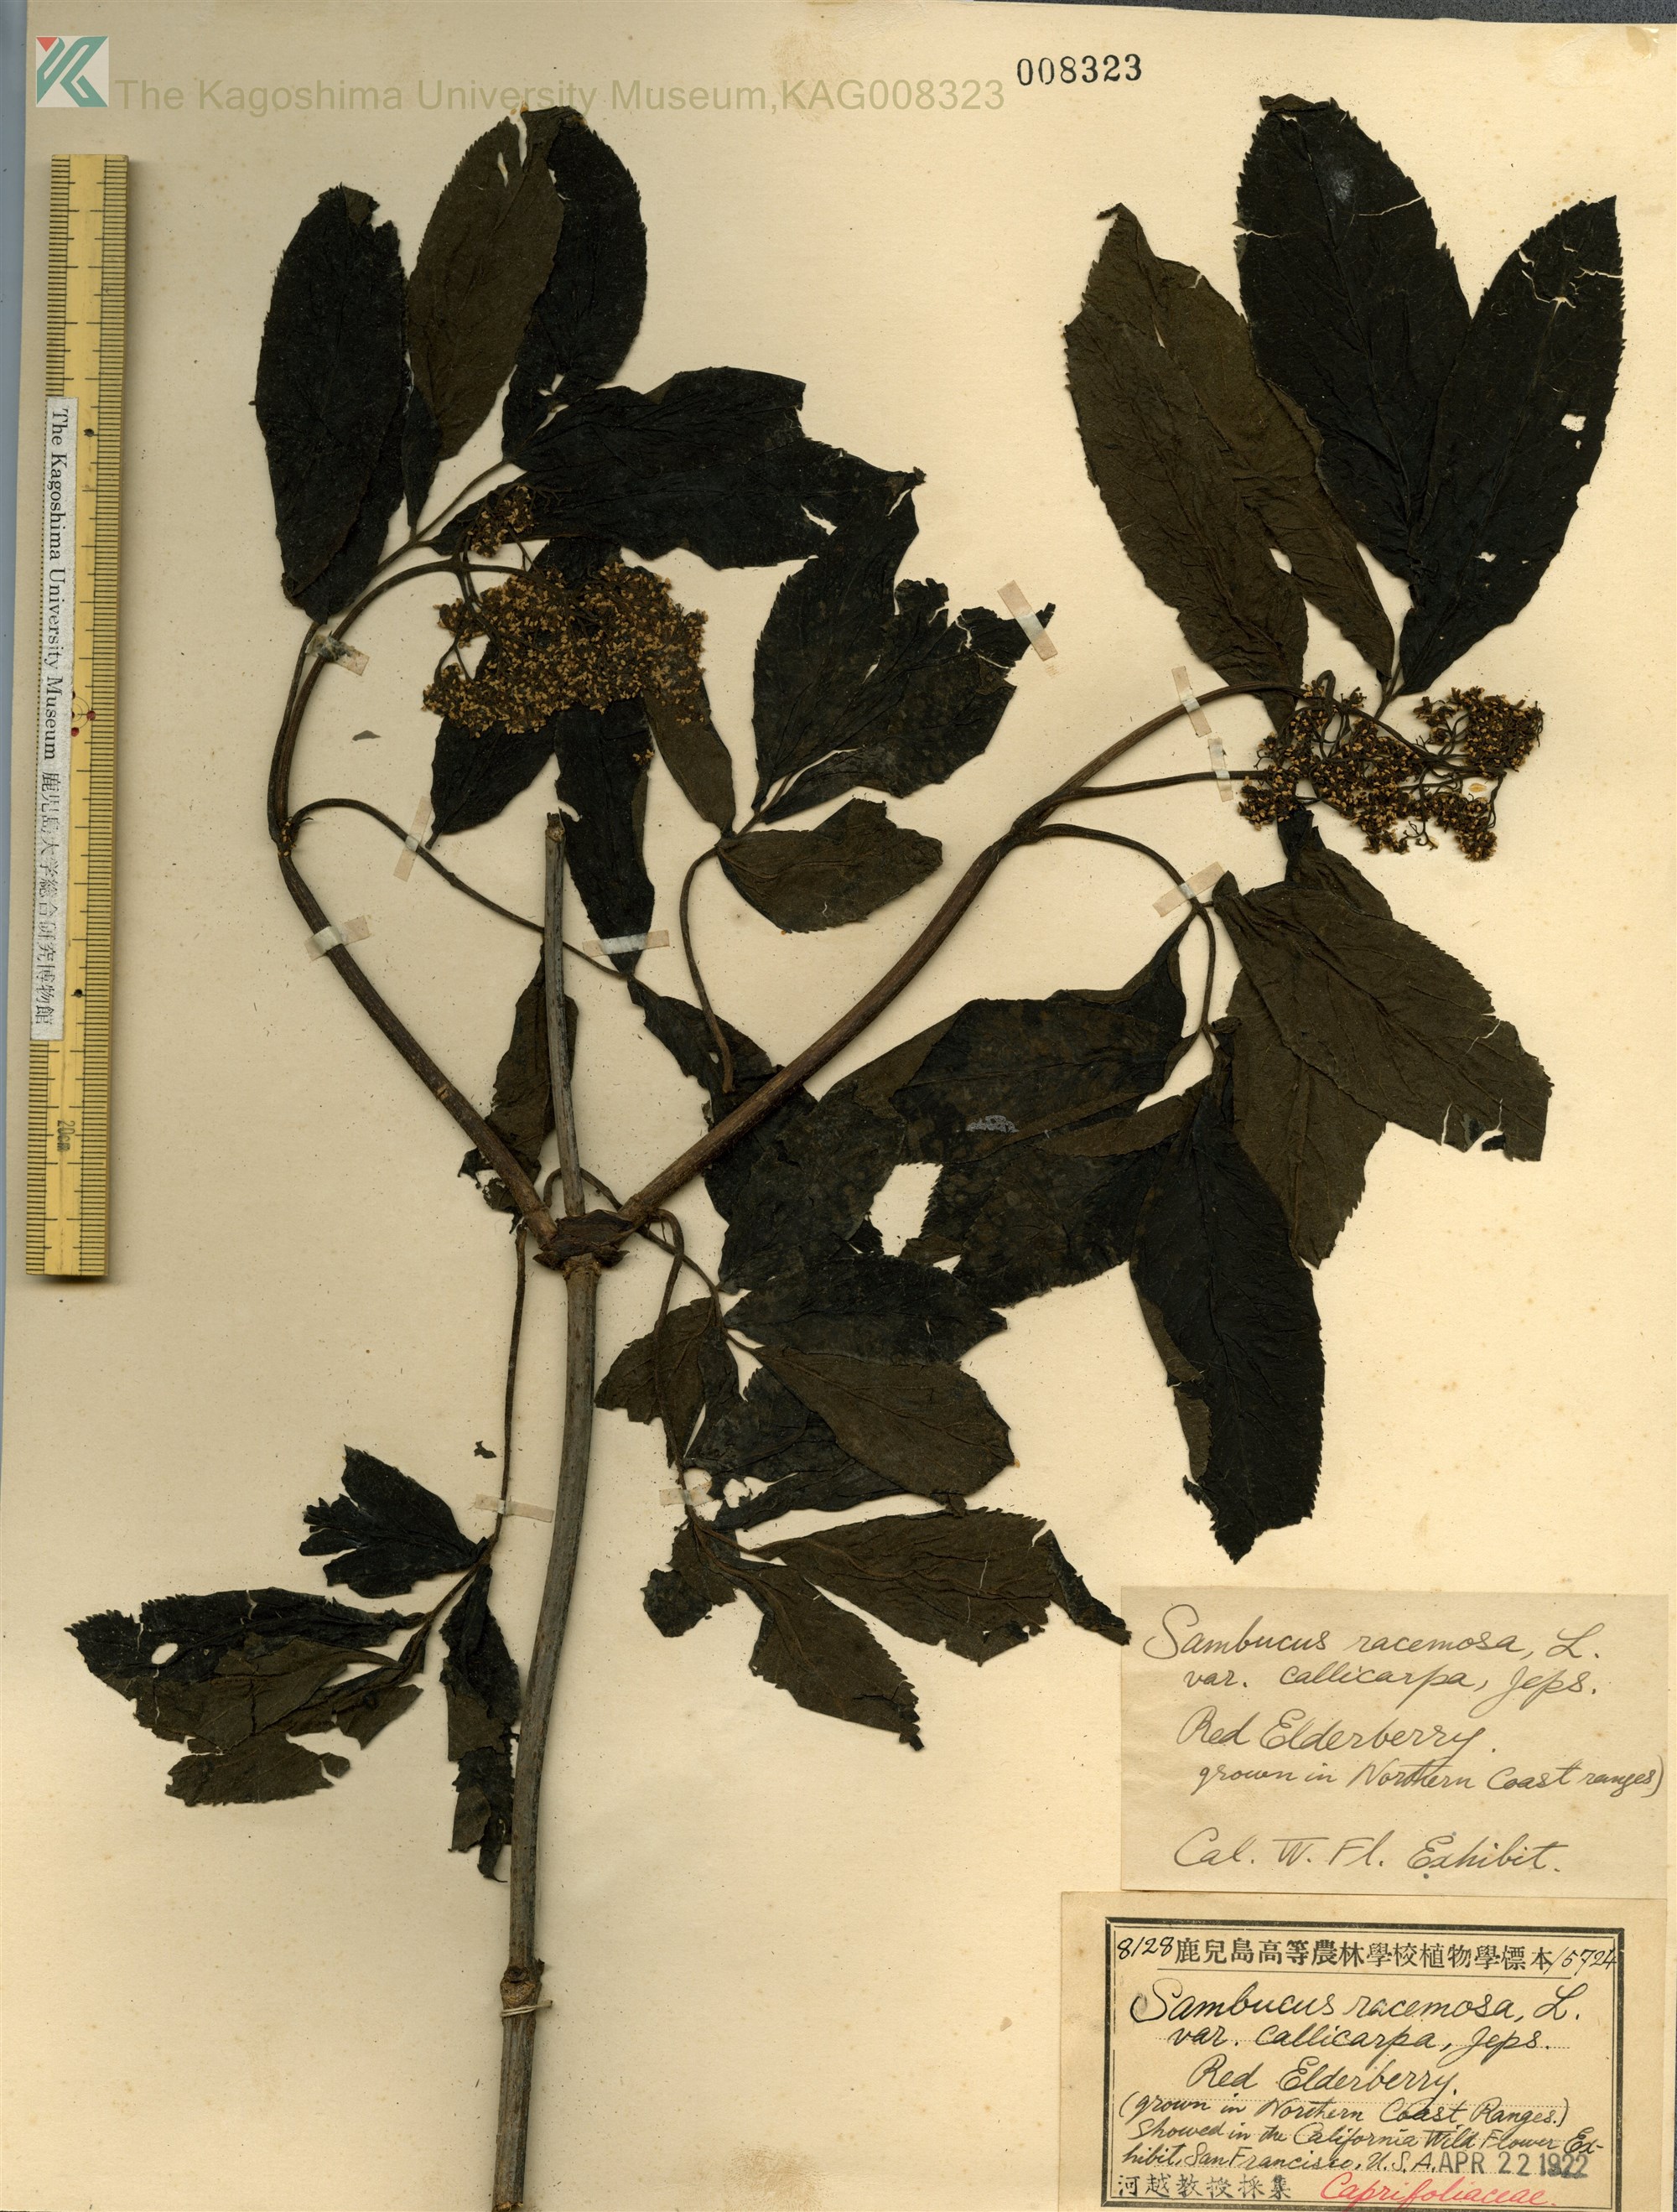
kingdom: Plantae
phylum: Tracheophyta
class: Magnoliopsida
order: Dipsacales
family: Viburnaceae
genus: Sambucus
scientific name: Sambucus racemosa
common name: Red-berried elder
